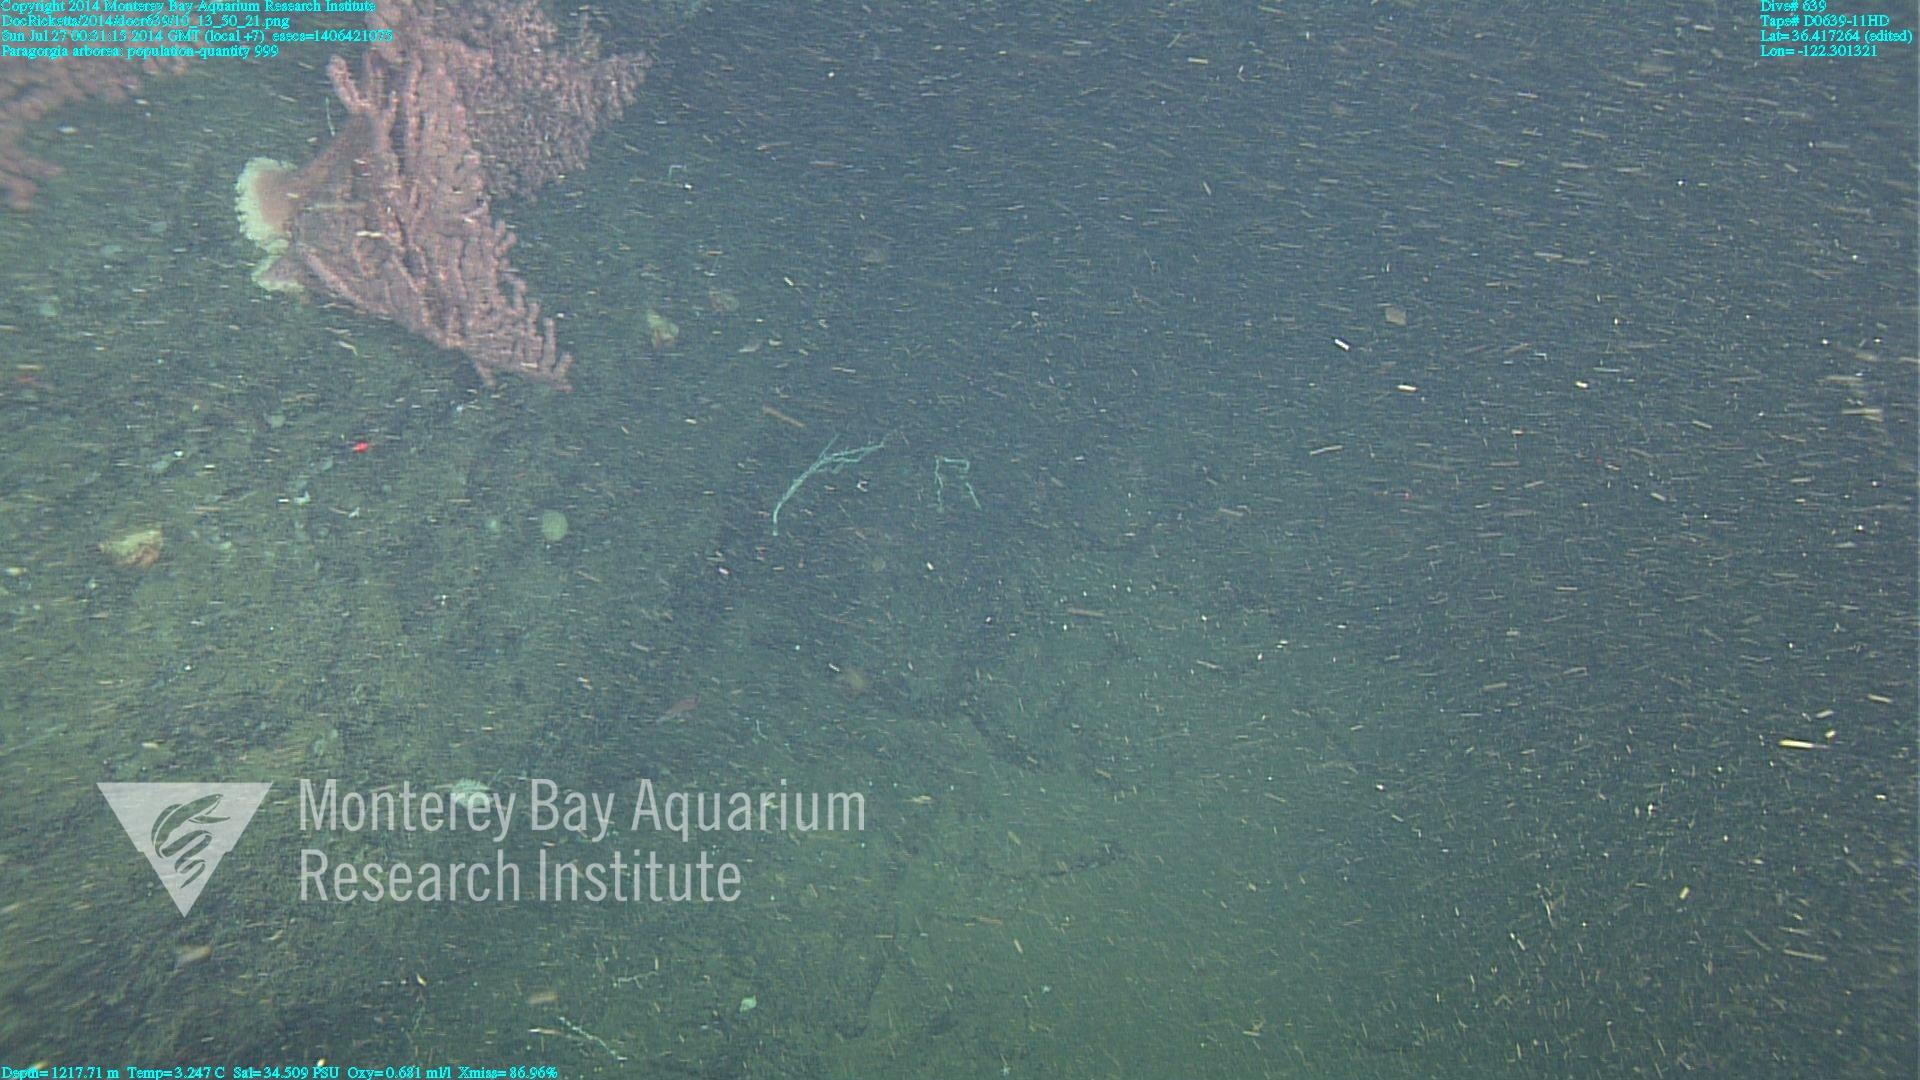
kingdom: Animalia
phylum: Cnidaria
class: Anthozoa
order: Scleralcyonacea
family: Coralliidae
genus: Paragorgia
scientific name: Paragorgia arborea
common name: Bubble gum coral
